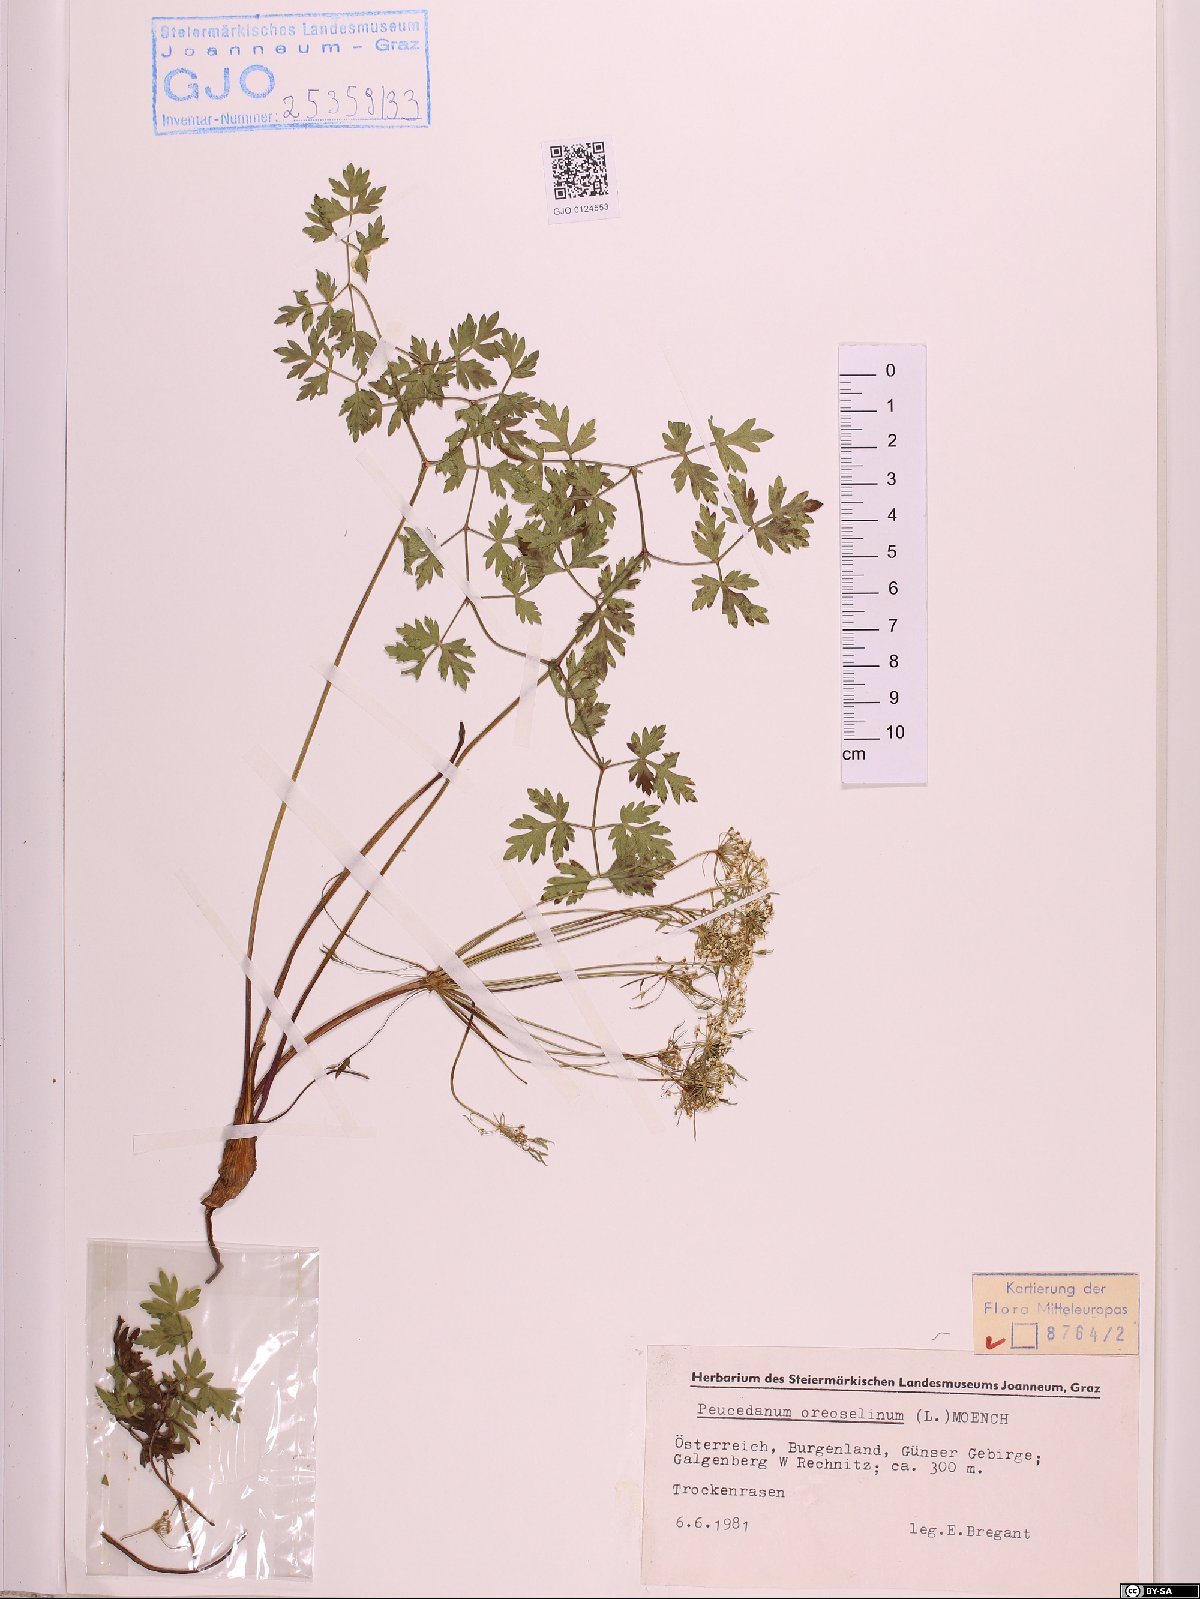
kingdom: Plantae
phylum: Tracheophyta
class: Magnoliopsida
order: Apiales
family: Apiaceae
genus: Oreoselinum
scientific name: Oreoselinum nigrum
